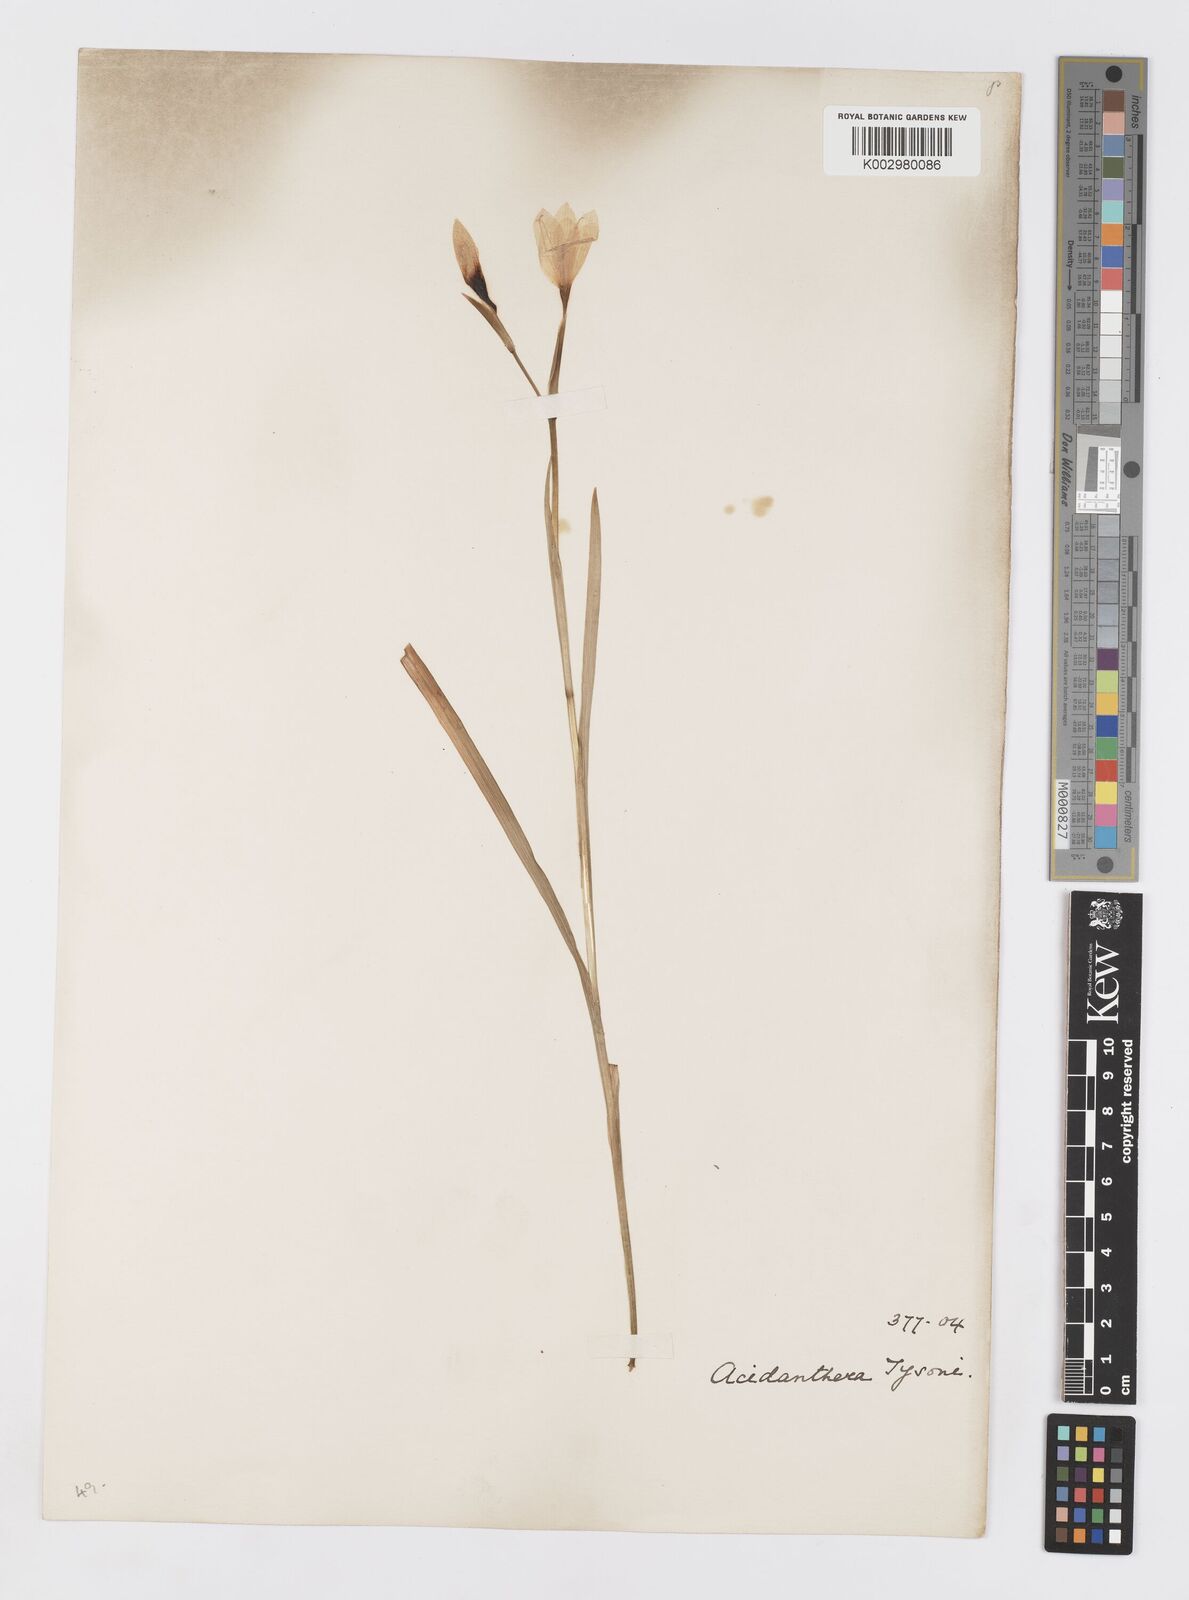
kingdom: Plantae
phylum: Tracheophyta
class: Liliopsida
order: Asparagales
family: Iridaceae
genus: Hesperantha
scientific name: Hesperantha grandiflora
